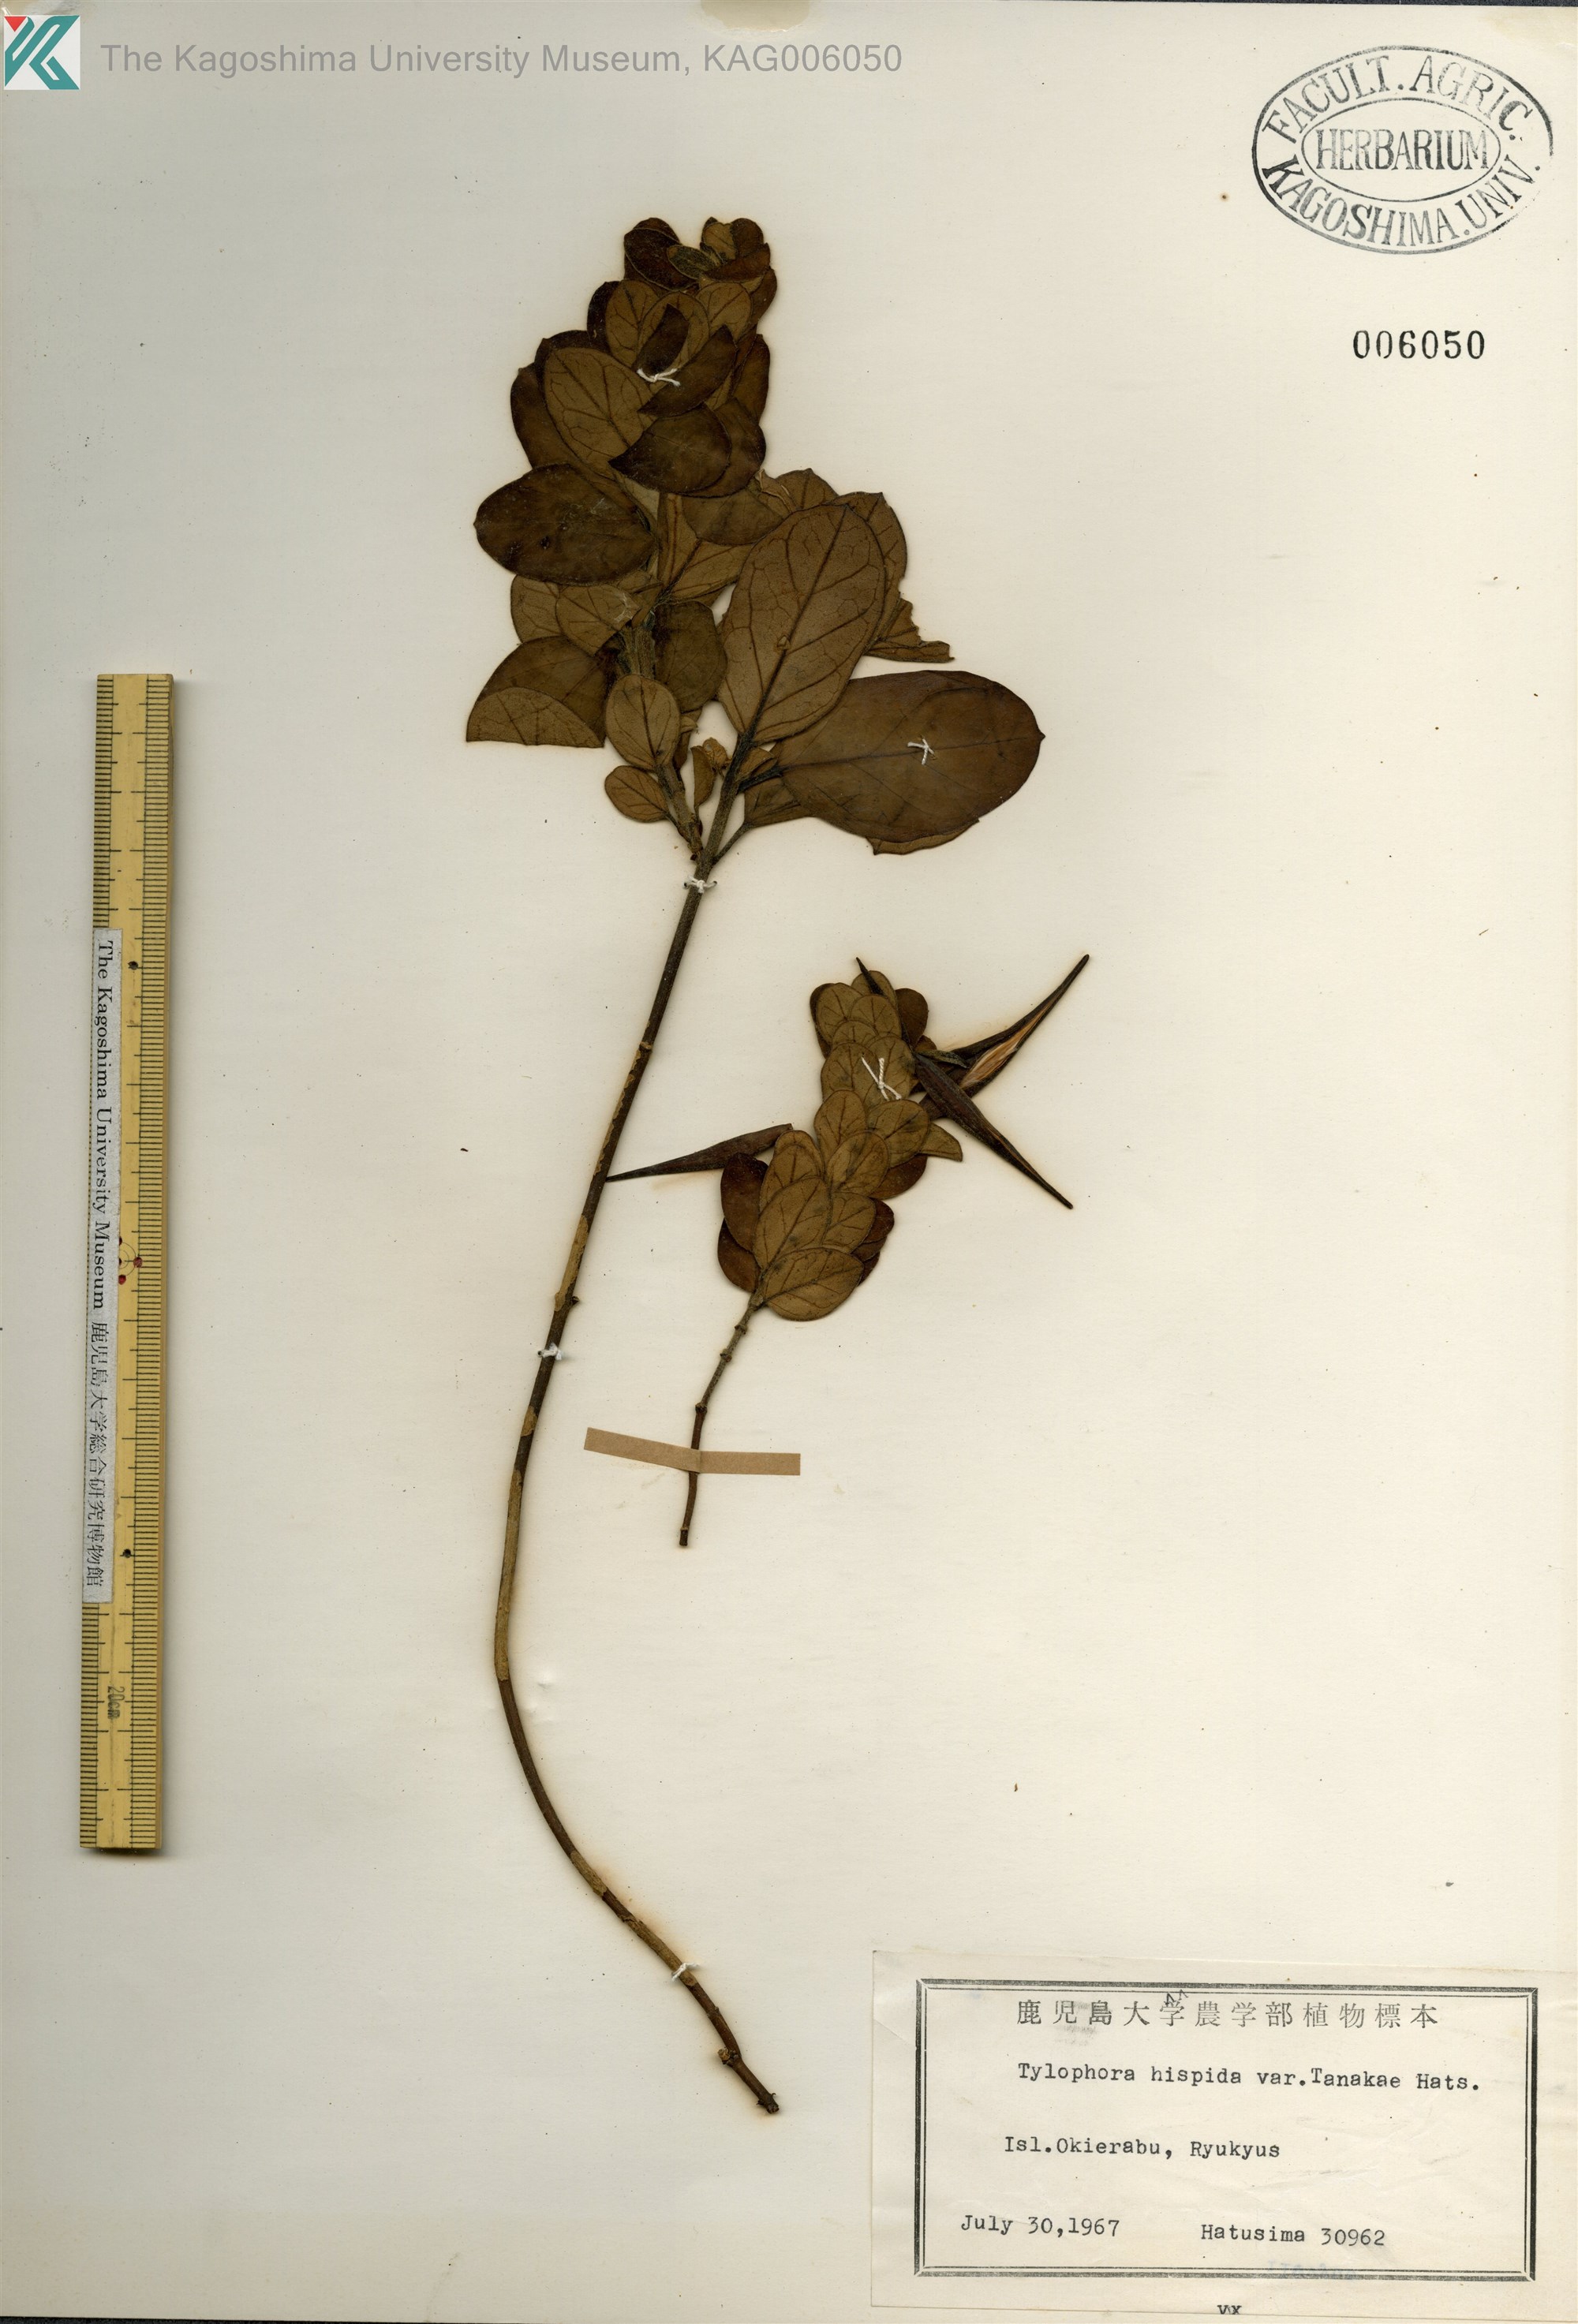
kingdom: Plantae
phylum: Tracheophyta
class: Magnoliopsida
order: Gentianales
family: Apocynaceae
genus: Vincetoxicum
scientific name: Vincetoxicum matsumurae
